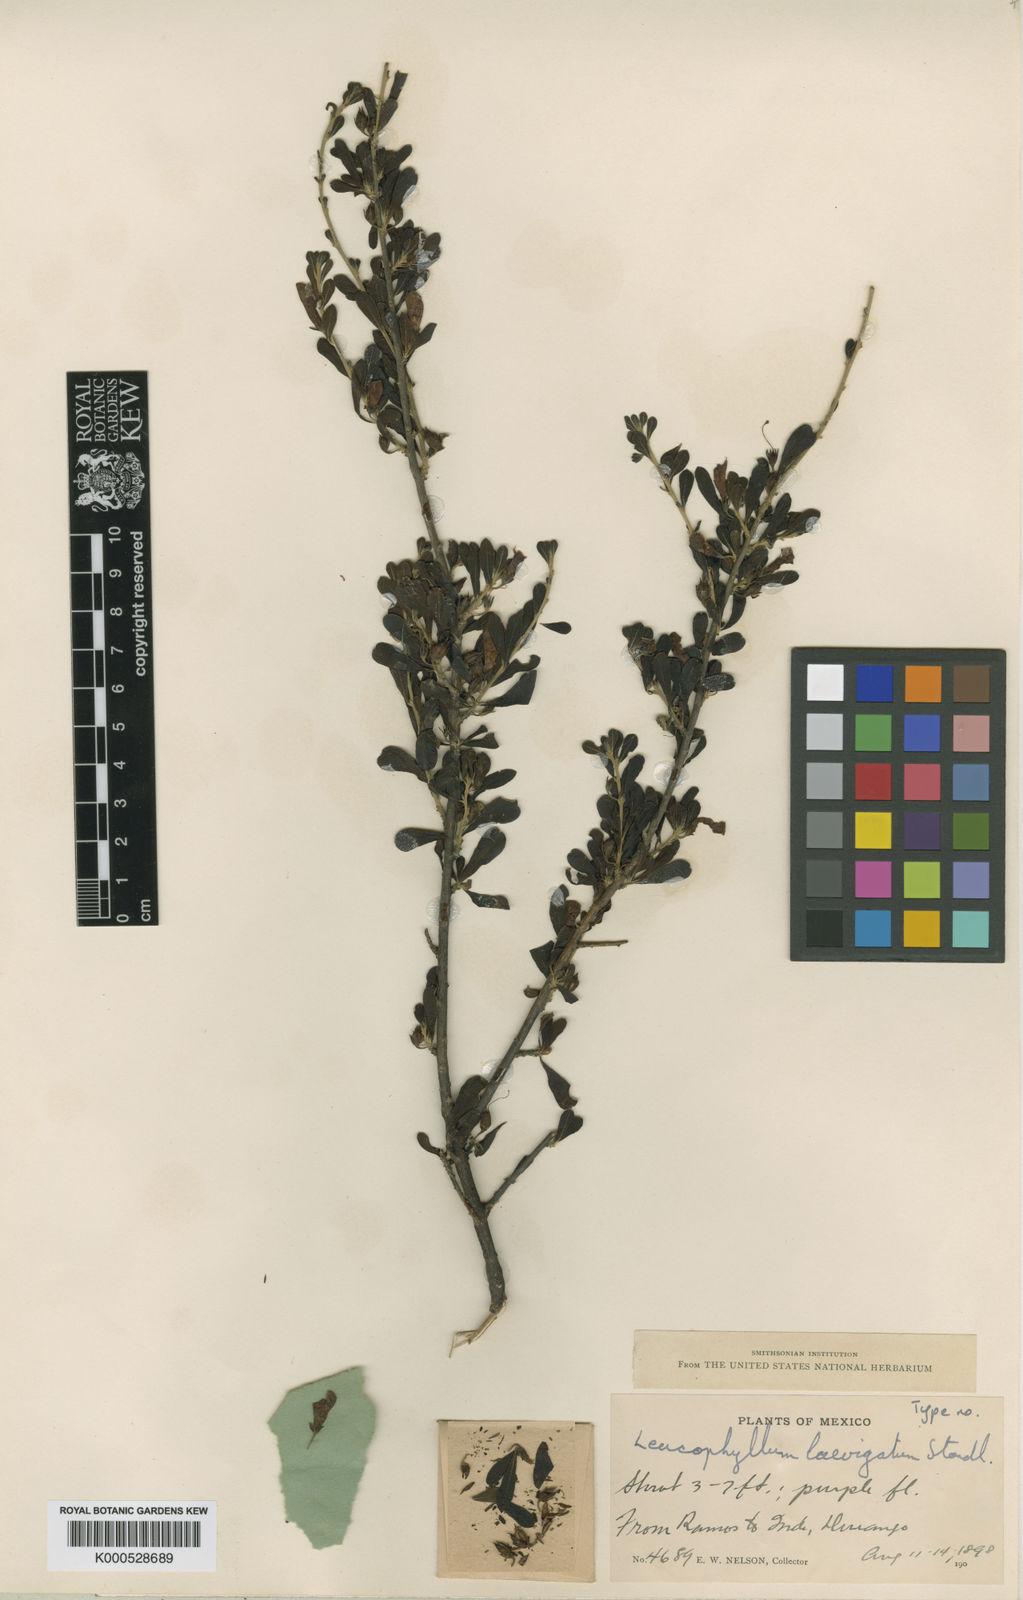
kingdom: Plantae
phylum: Tracheophyta
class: Magnoliopsida
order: Lamiales
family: Scrophulariaceae
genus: Leucophyllum
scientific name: Leucophyllum laevigatum
